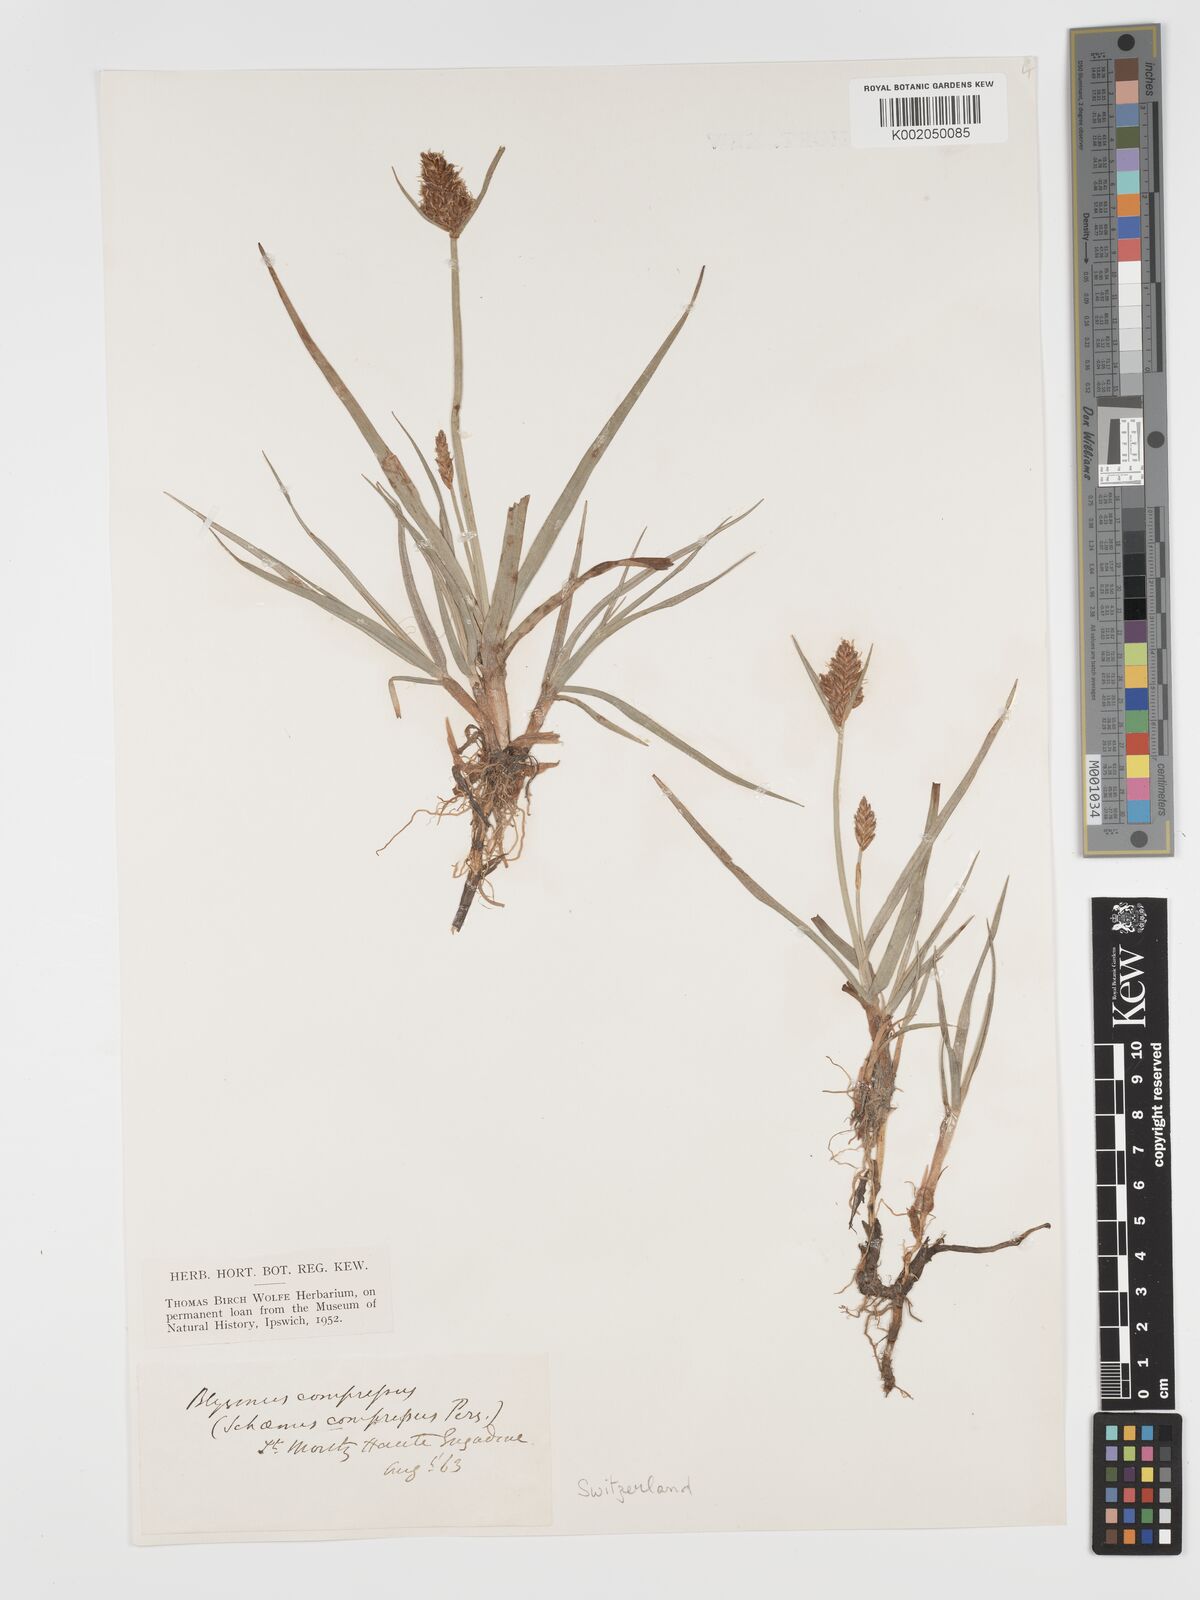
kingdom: Plantae
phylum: Tracheophyta
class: Liliopsida
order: Poales
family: Cyperaceae
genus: Blysmus
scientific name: Blysmus compressus
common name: Flat-sedge
